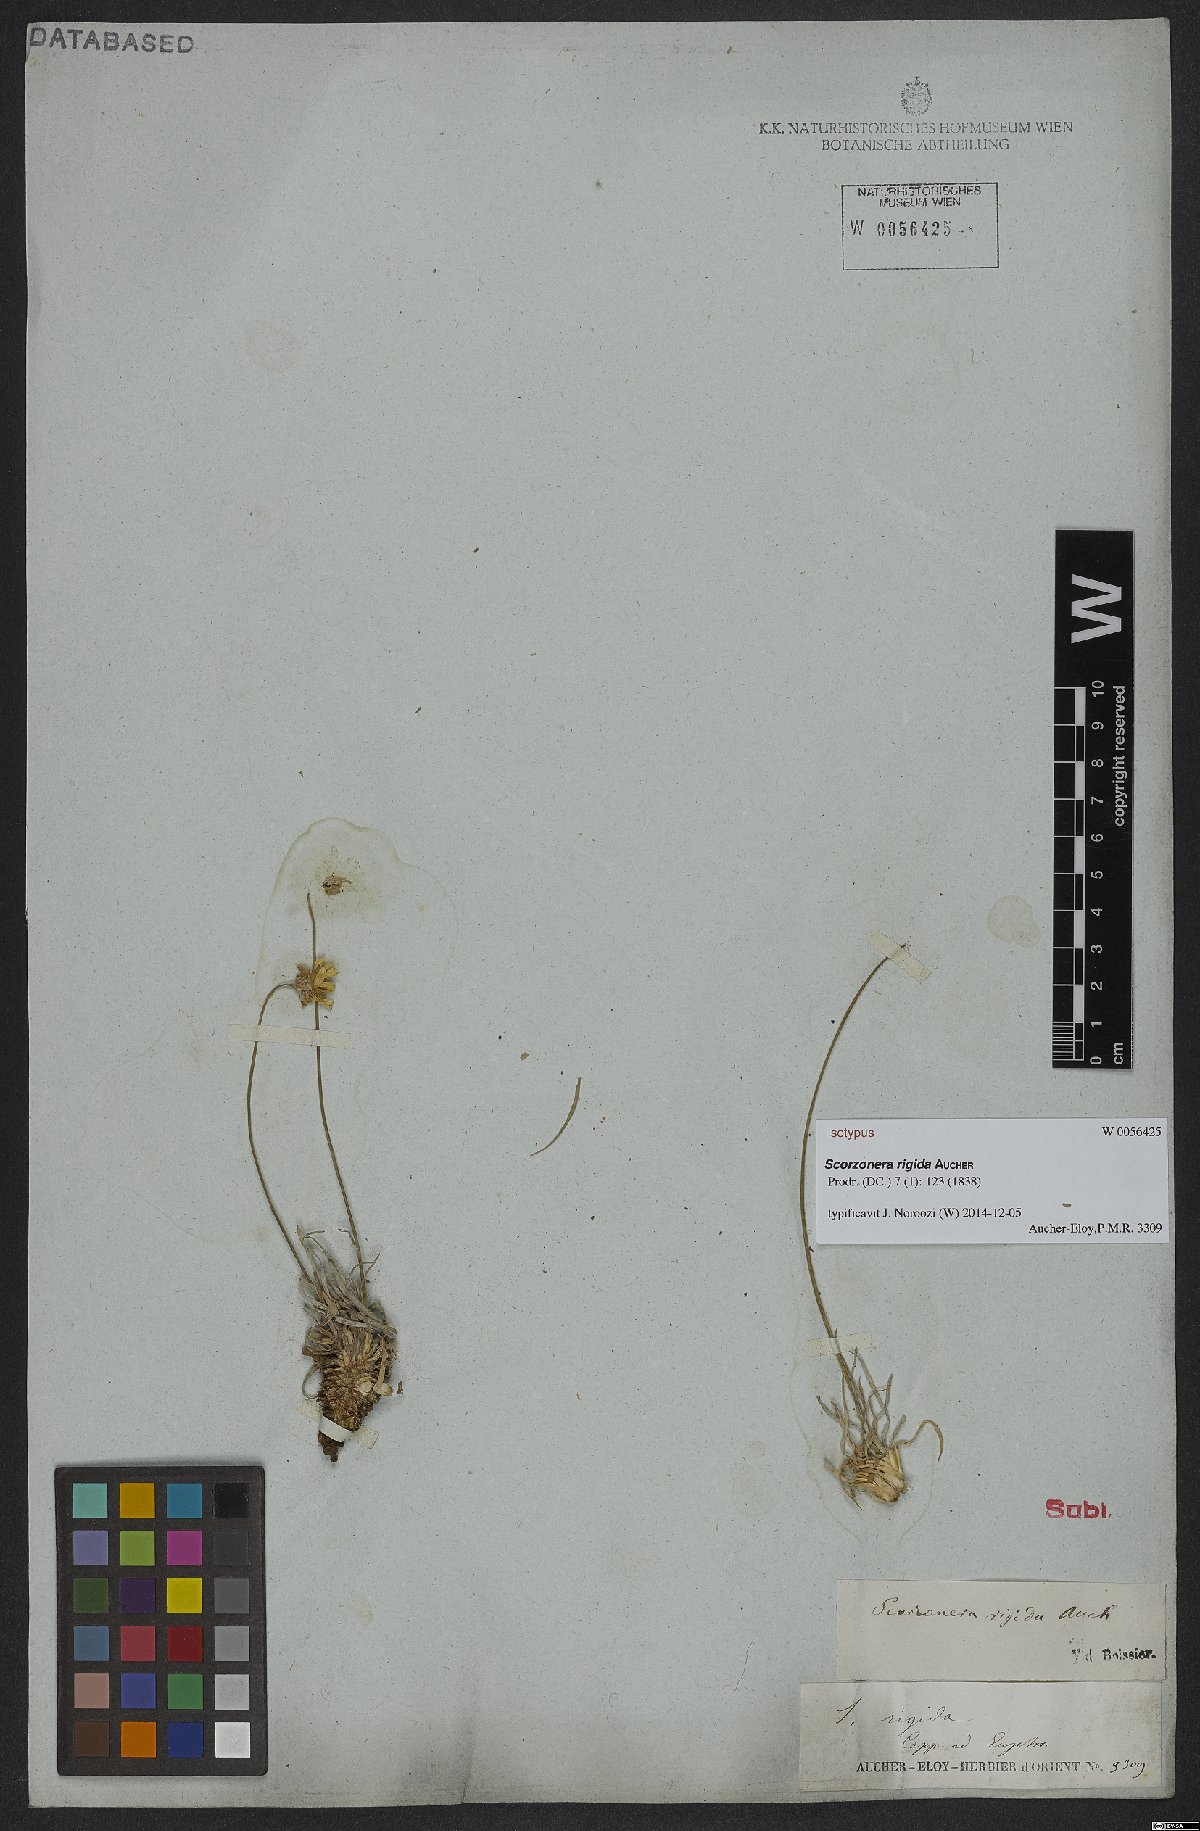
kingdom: Plantae
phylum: Tracheophyta
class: Magnoliopsida
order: Asterales
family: Asteraceae
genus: Goekyighitia
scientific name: Goekyighitia rigida
